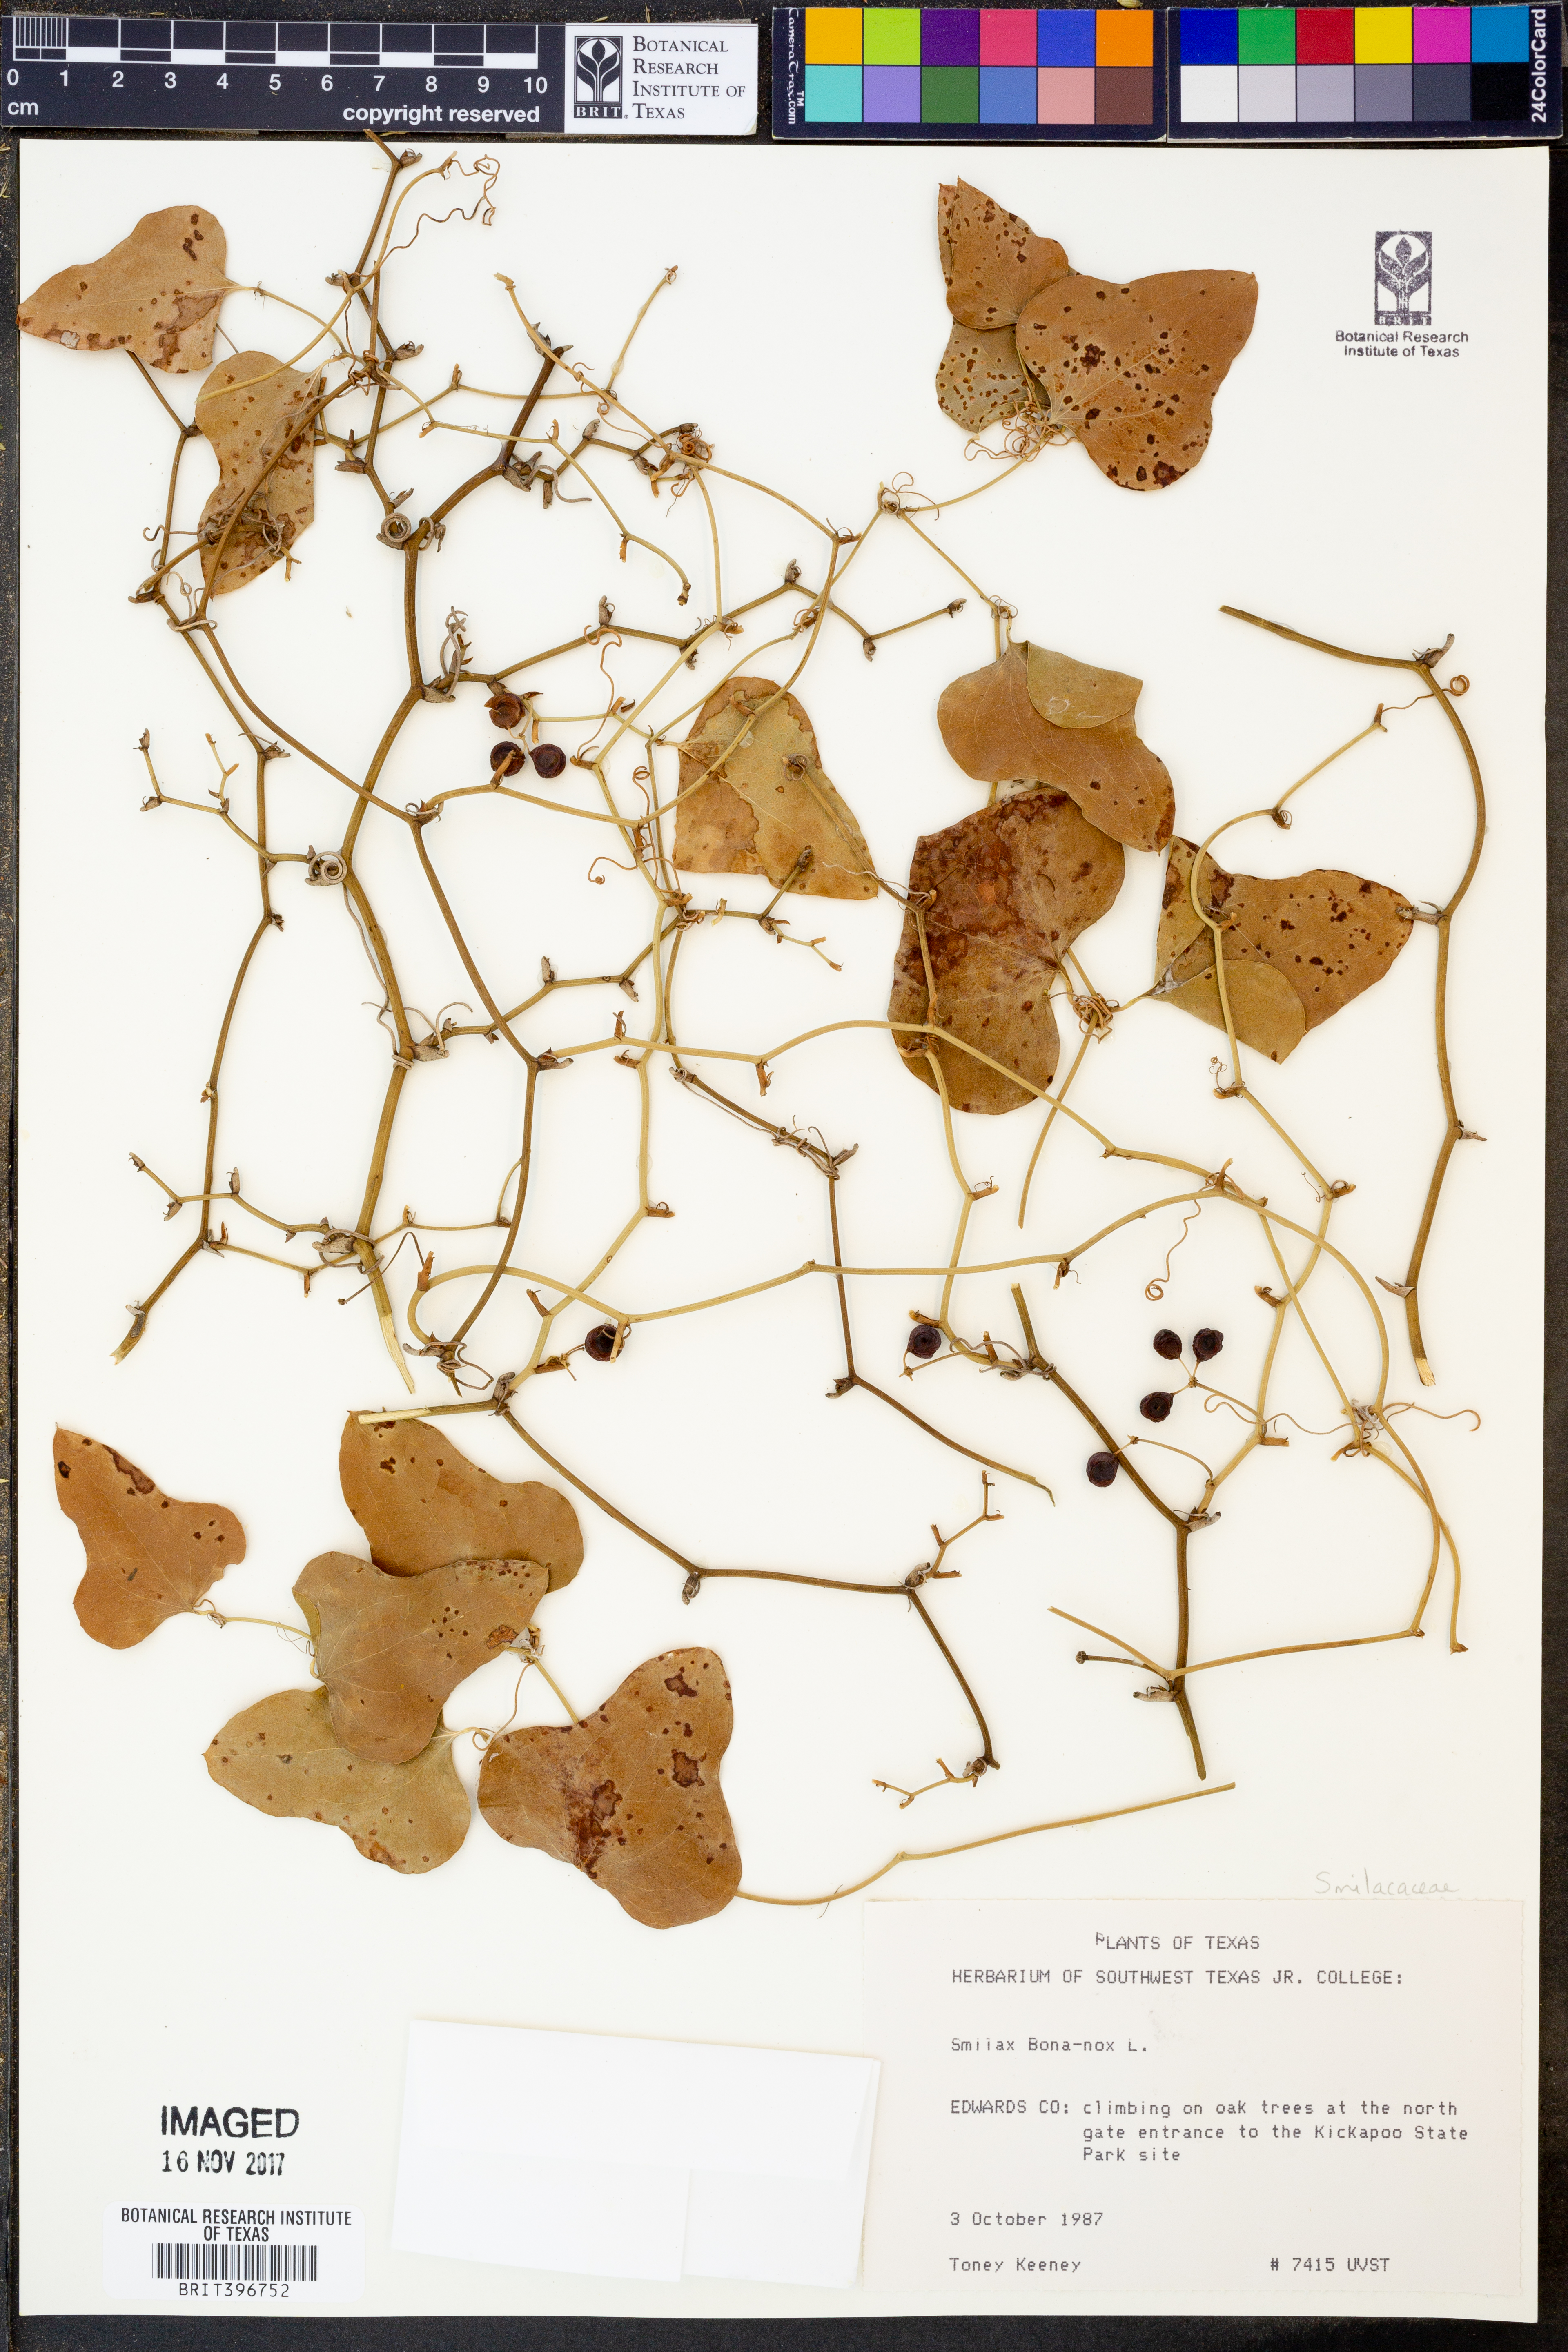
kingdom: Plantae
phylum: Tracheophyta
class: Liliopsida
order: Liliales
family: Smilacaceae
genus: Smilax
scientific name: Smilax bona-nox
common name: Catbrier
